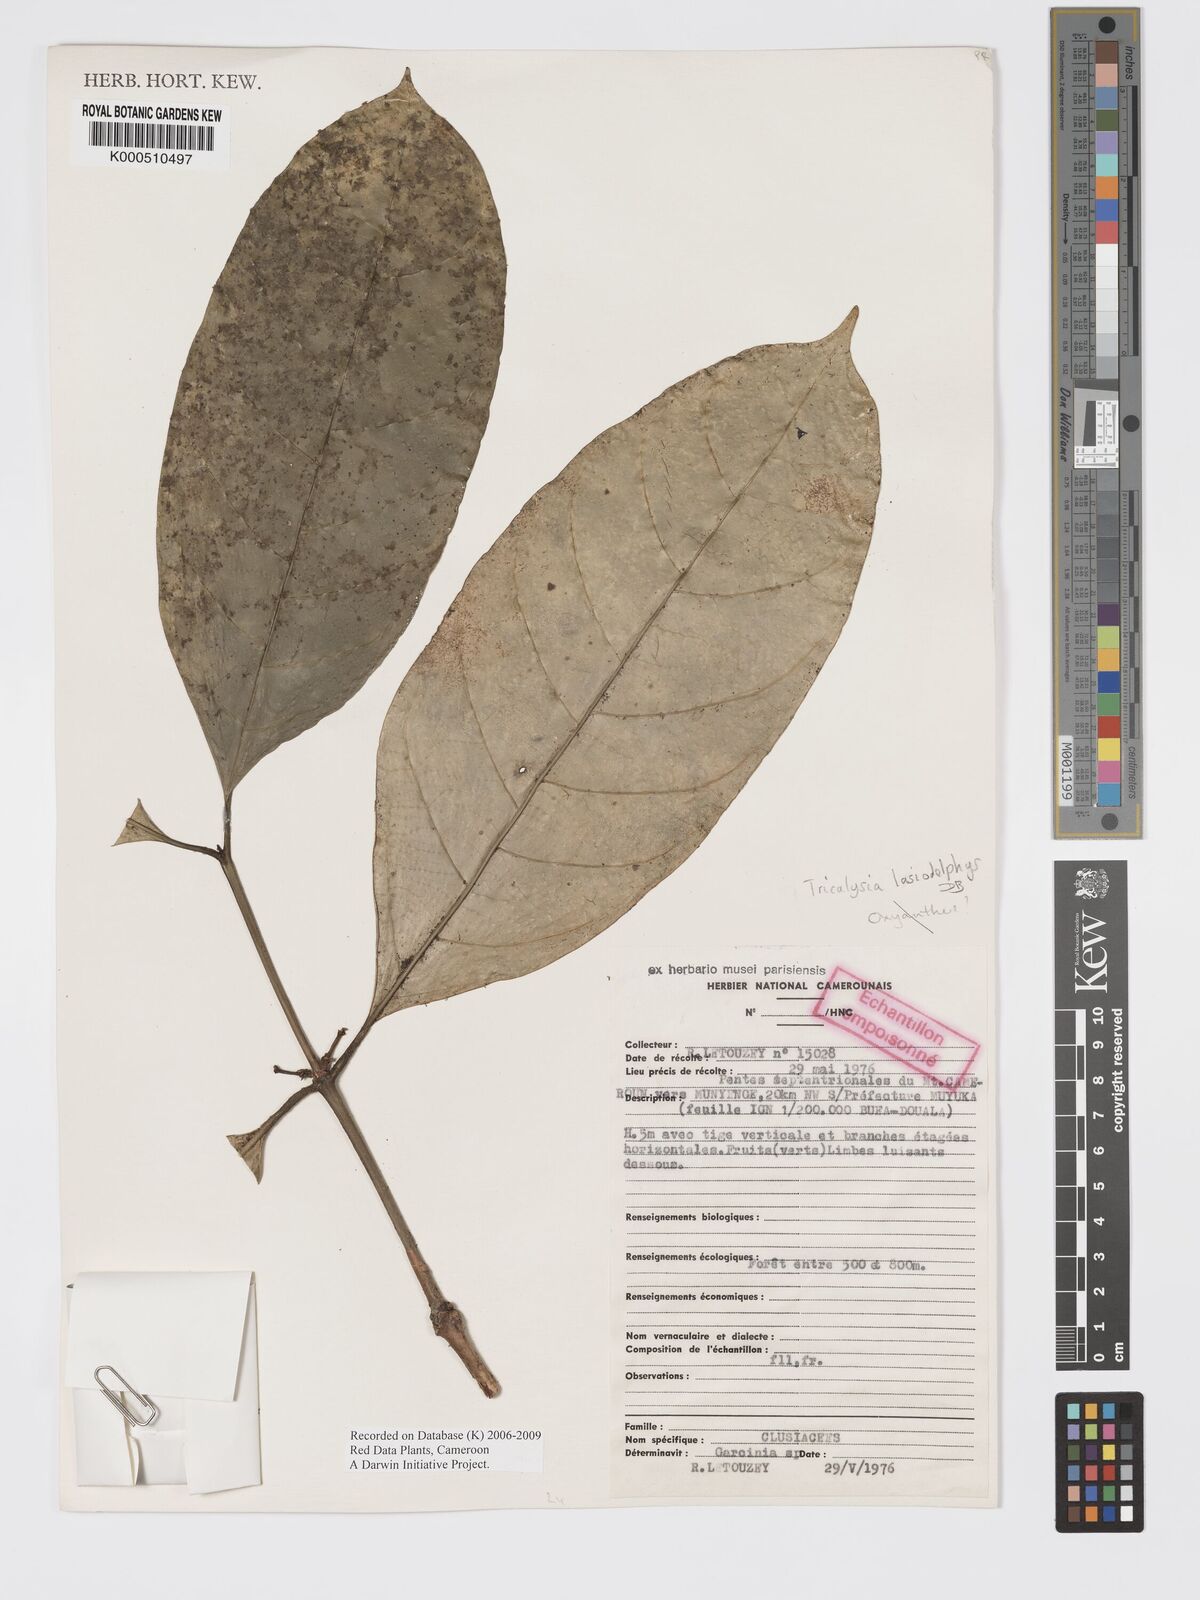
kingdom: Plantae
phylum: Tracheophyta
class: Magnoliopsida
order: Gentianales
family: Rubiaceae
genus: Tricalysia
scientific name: Tricalysia
